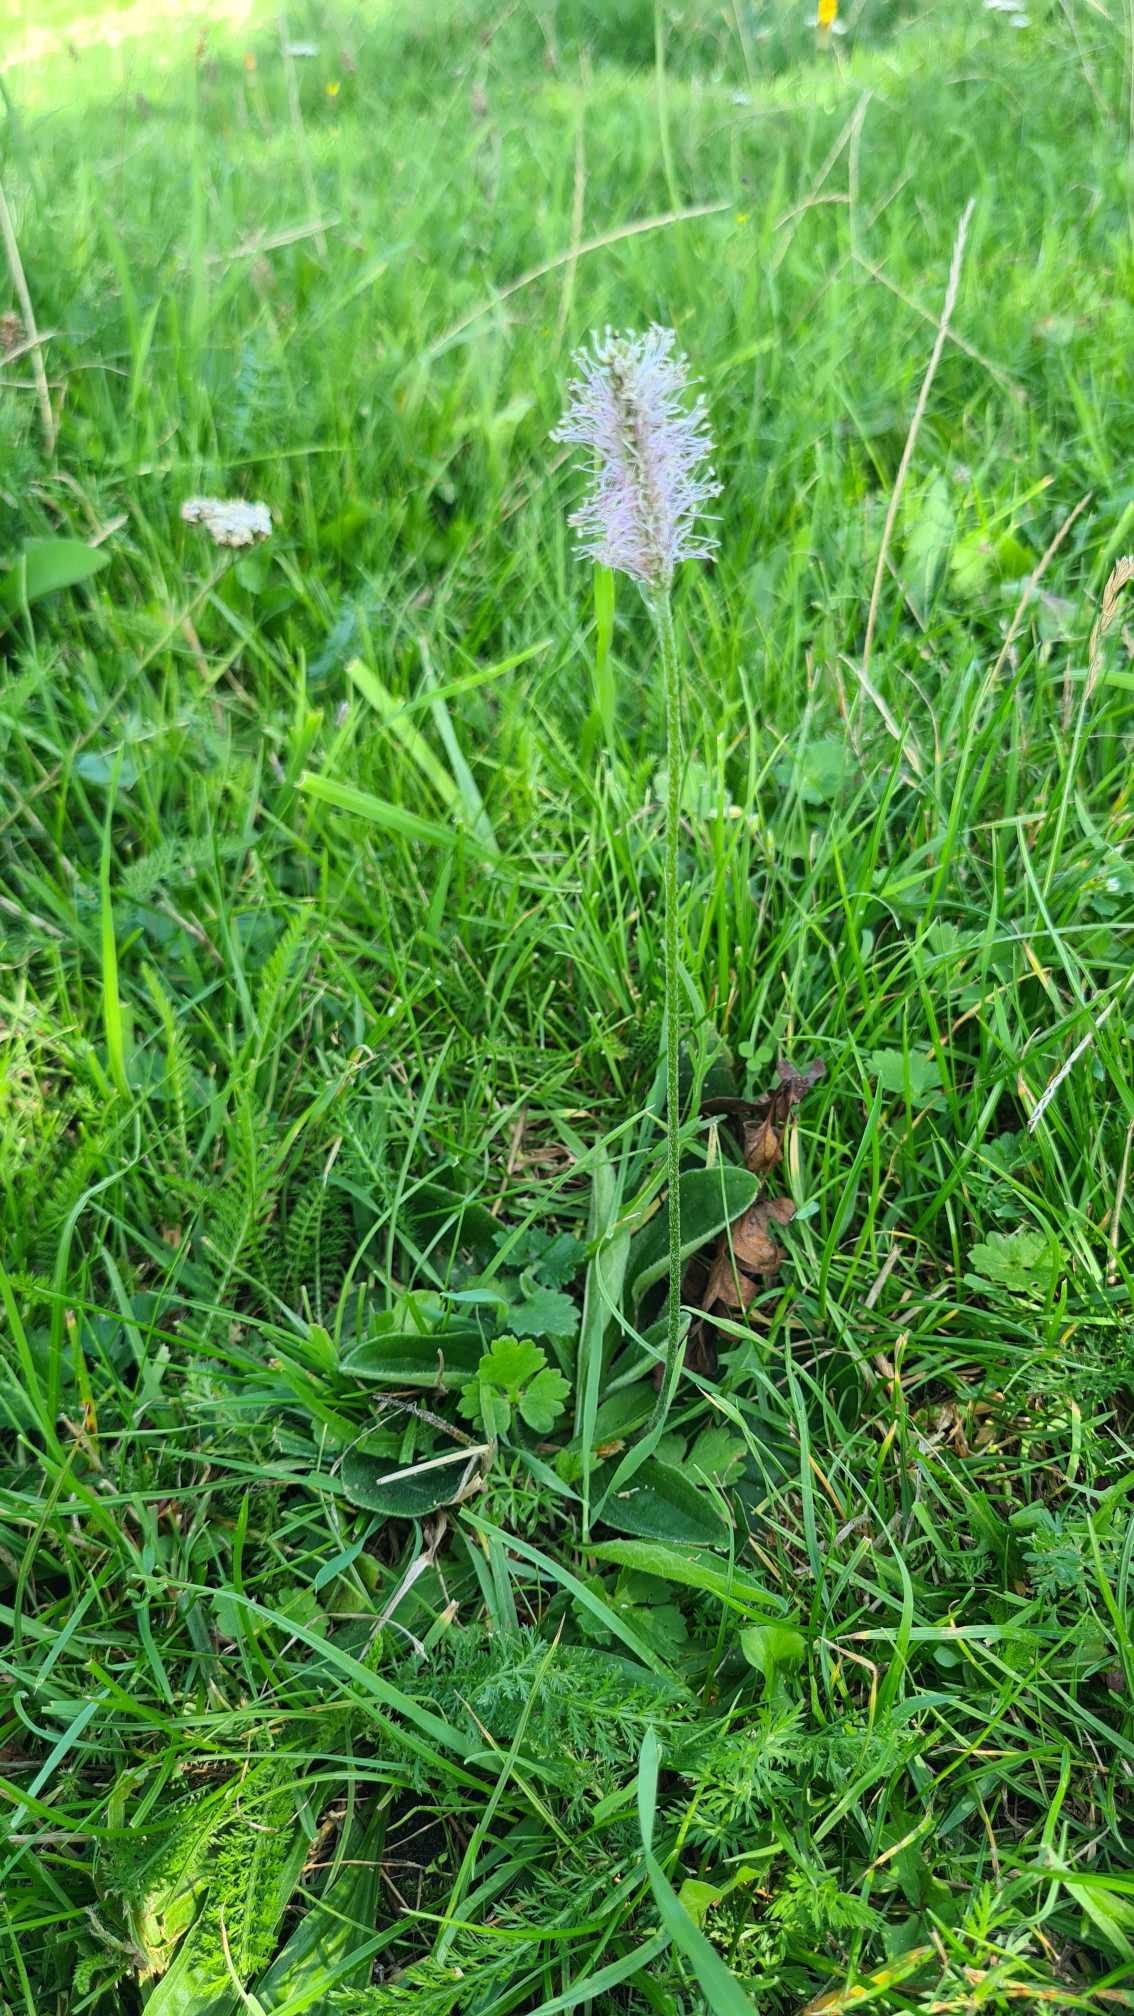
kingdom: Plantae
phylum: Tracheophyta
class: Magnoliopsida
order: Lamiales
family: Plantaginaceae
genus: Plantago
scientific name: Plantago media
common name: Dunet vejbred
